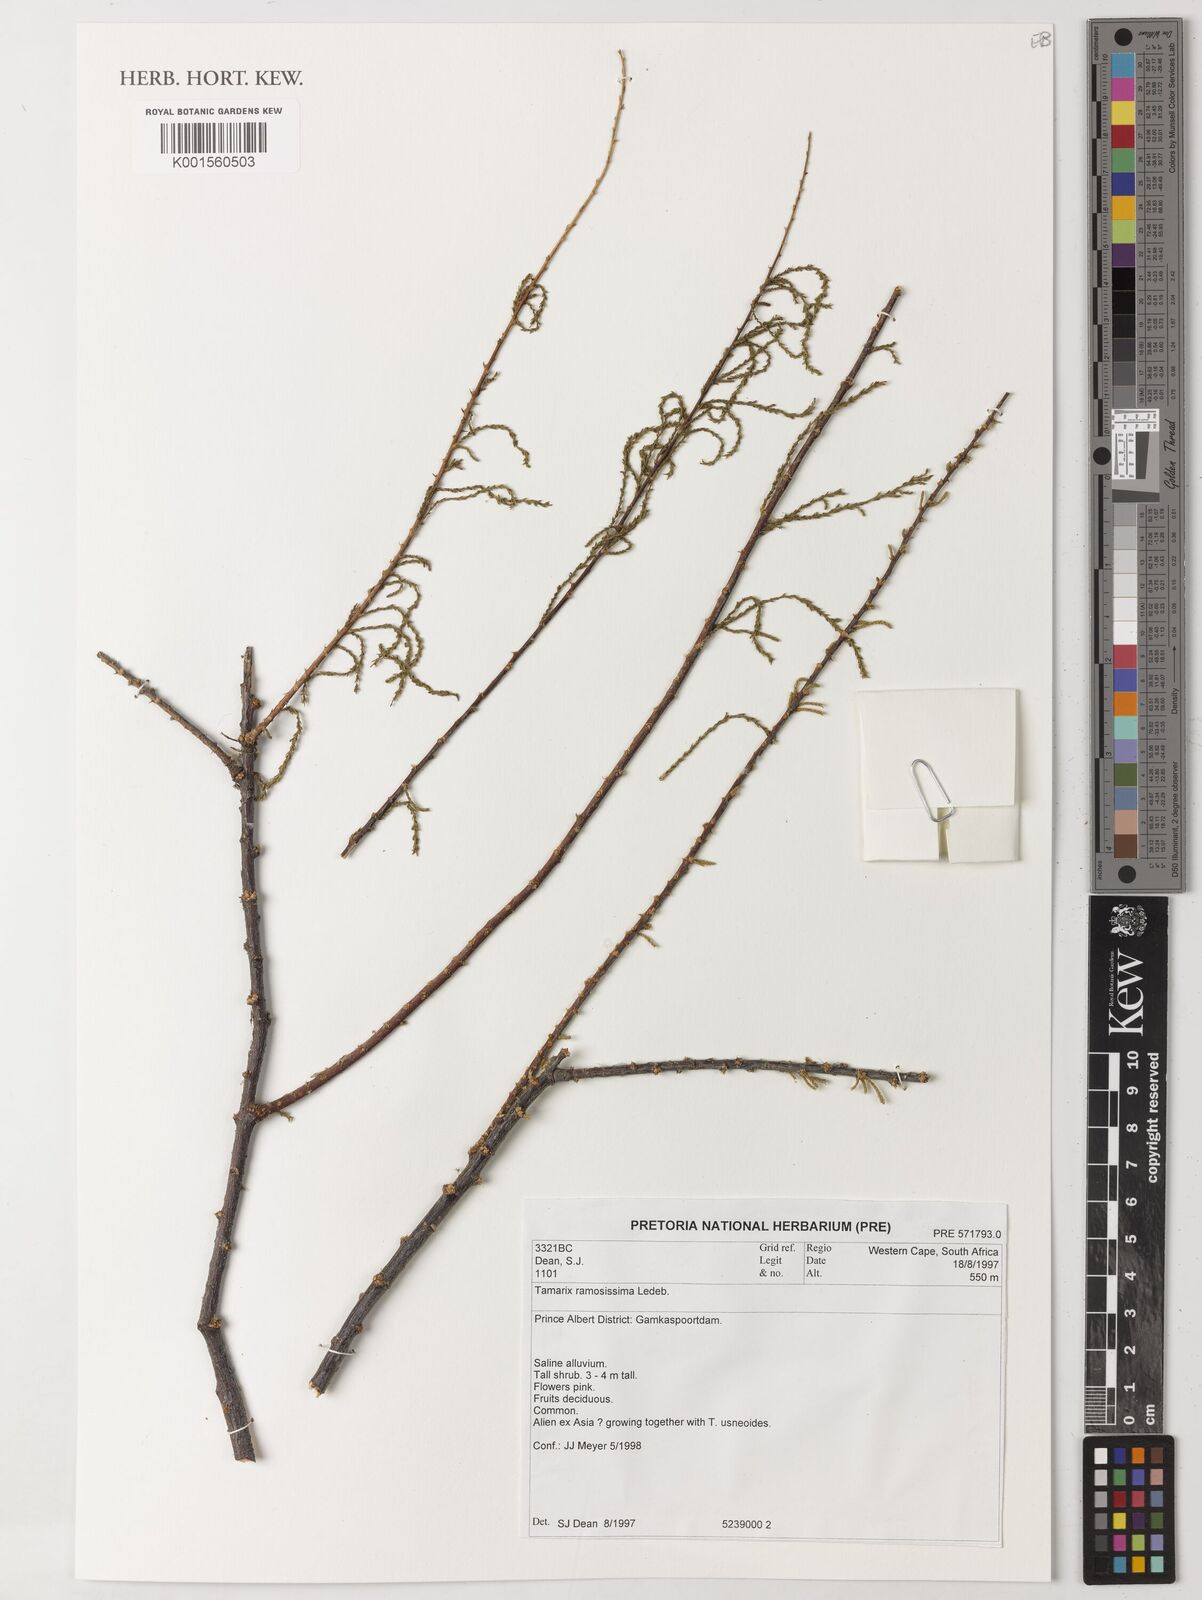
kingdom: Plantae
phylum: Tracheophyta
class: Magnoliopsida
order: Caryophyllales
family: Tamaricaceae
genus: Tamarix
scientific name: Tamarix ramosissima
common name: Pink tamarisk
